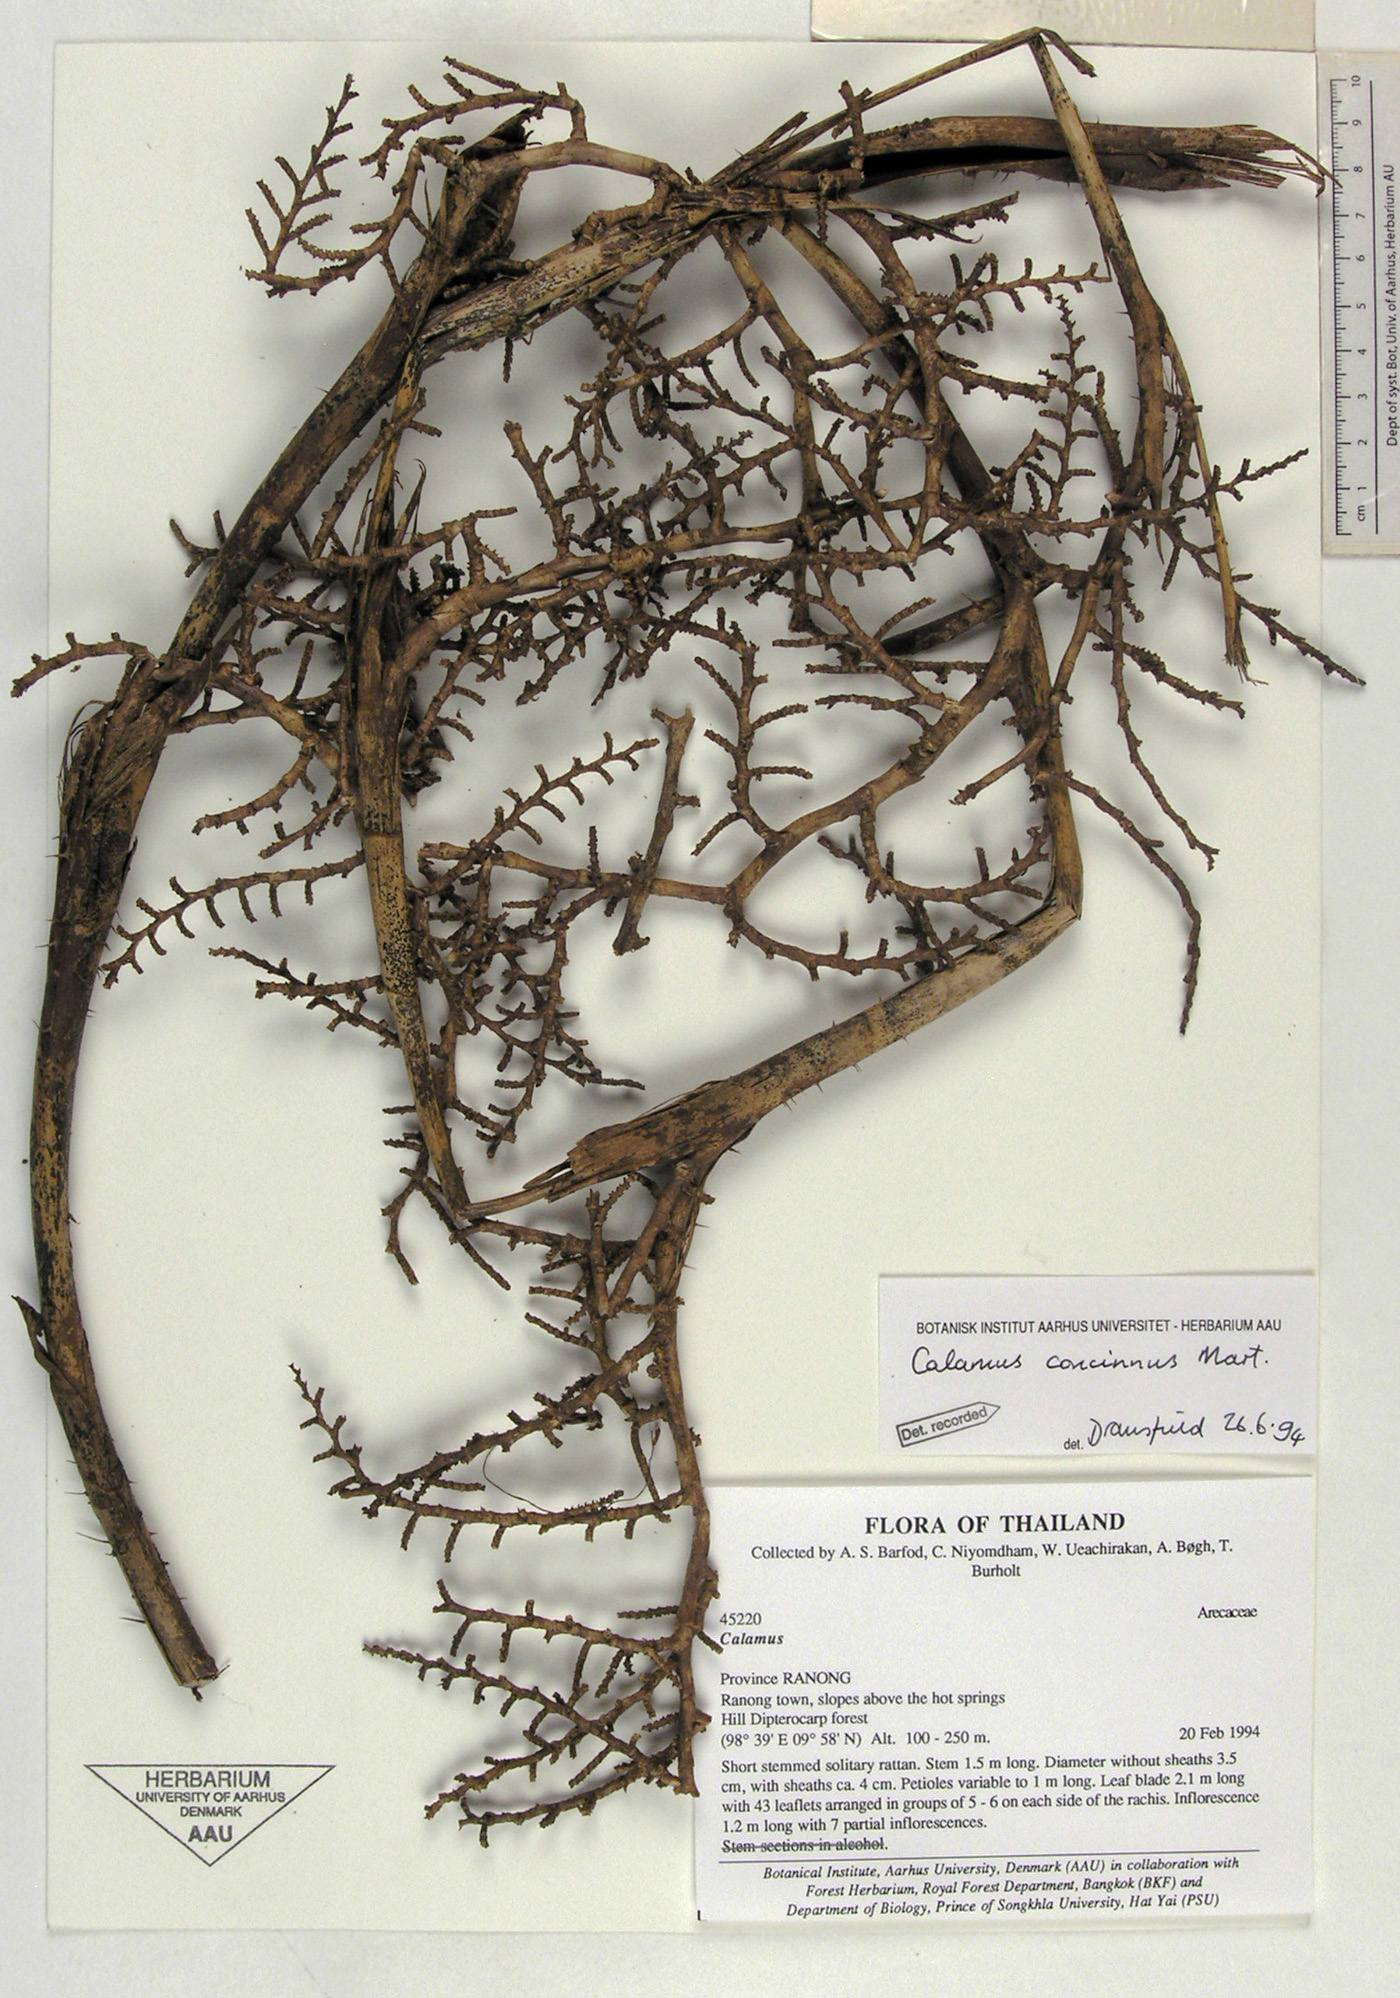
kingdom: Plantae
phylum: Tracheophyta
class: Liliopsida
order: Arecales
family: Arecaceae
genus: Calamus
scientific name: Calamus concinnus
